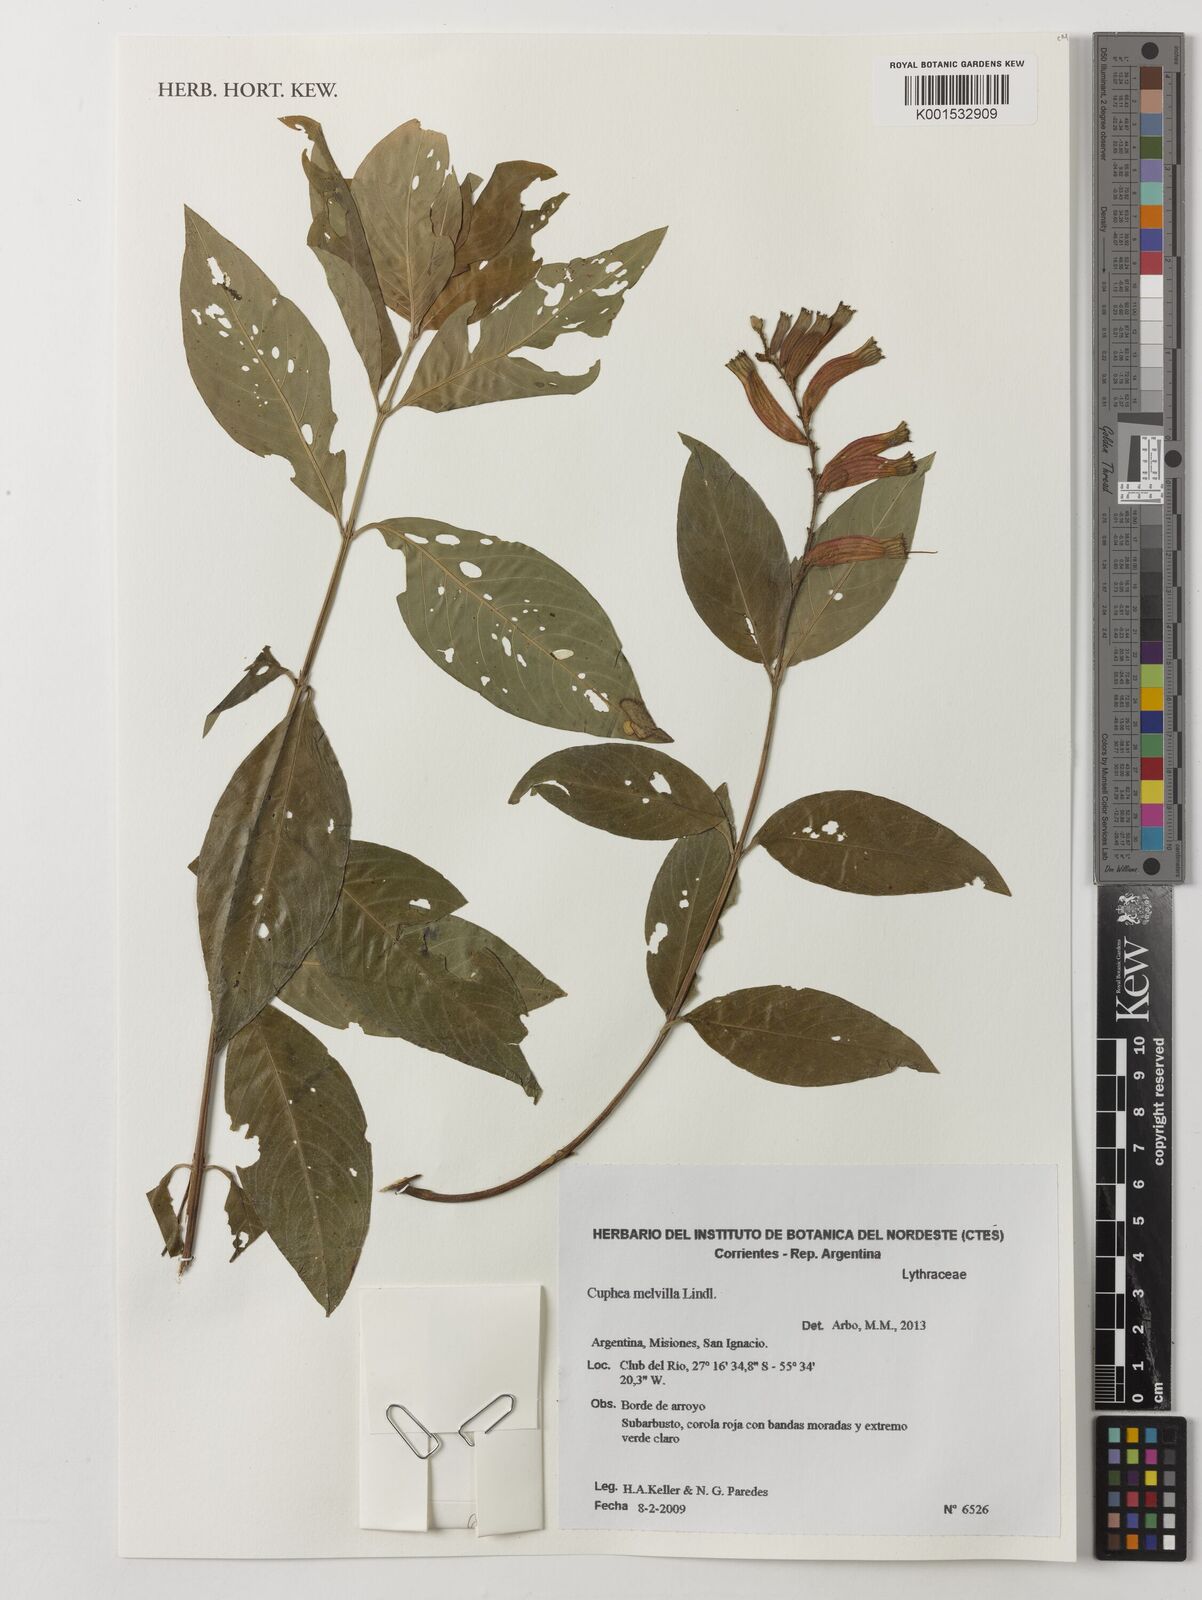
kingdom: Plantae
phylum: Tracheophyta
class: Magnoliopsida
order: Myrtales
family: Lythraceae
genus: Cuphea
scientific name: Cuphea melvilla
